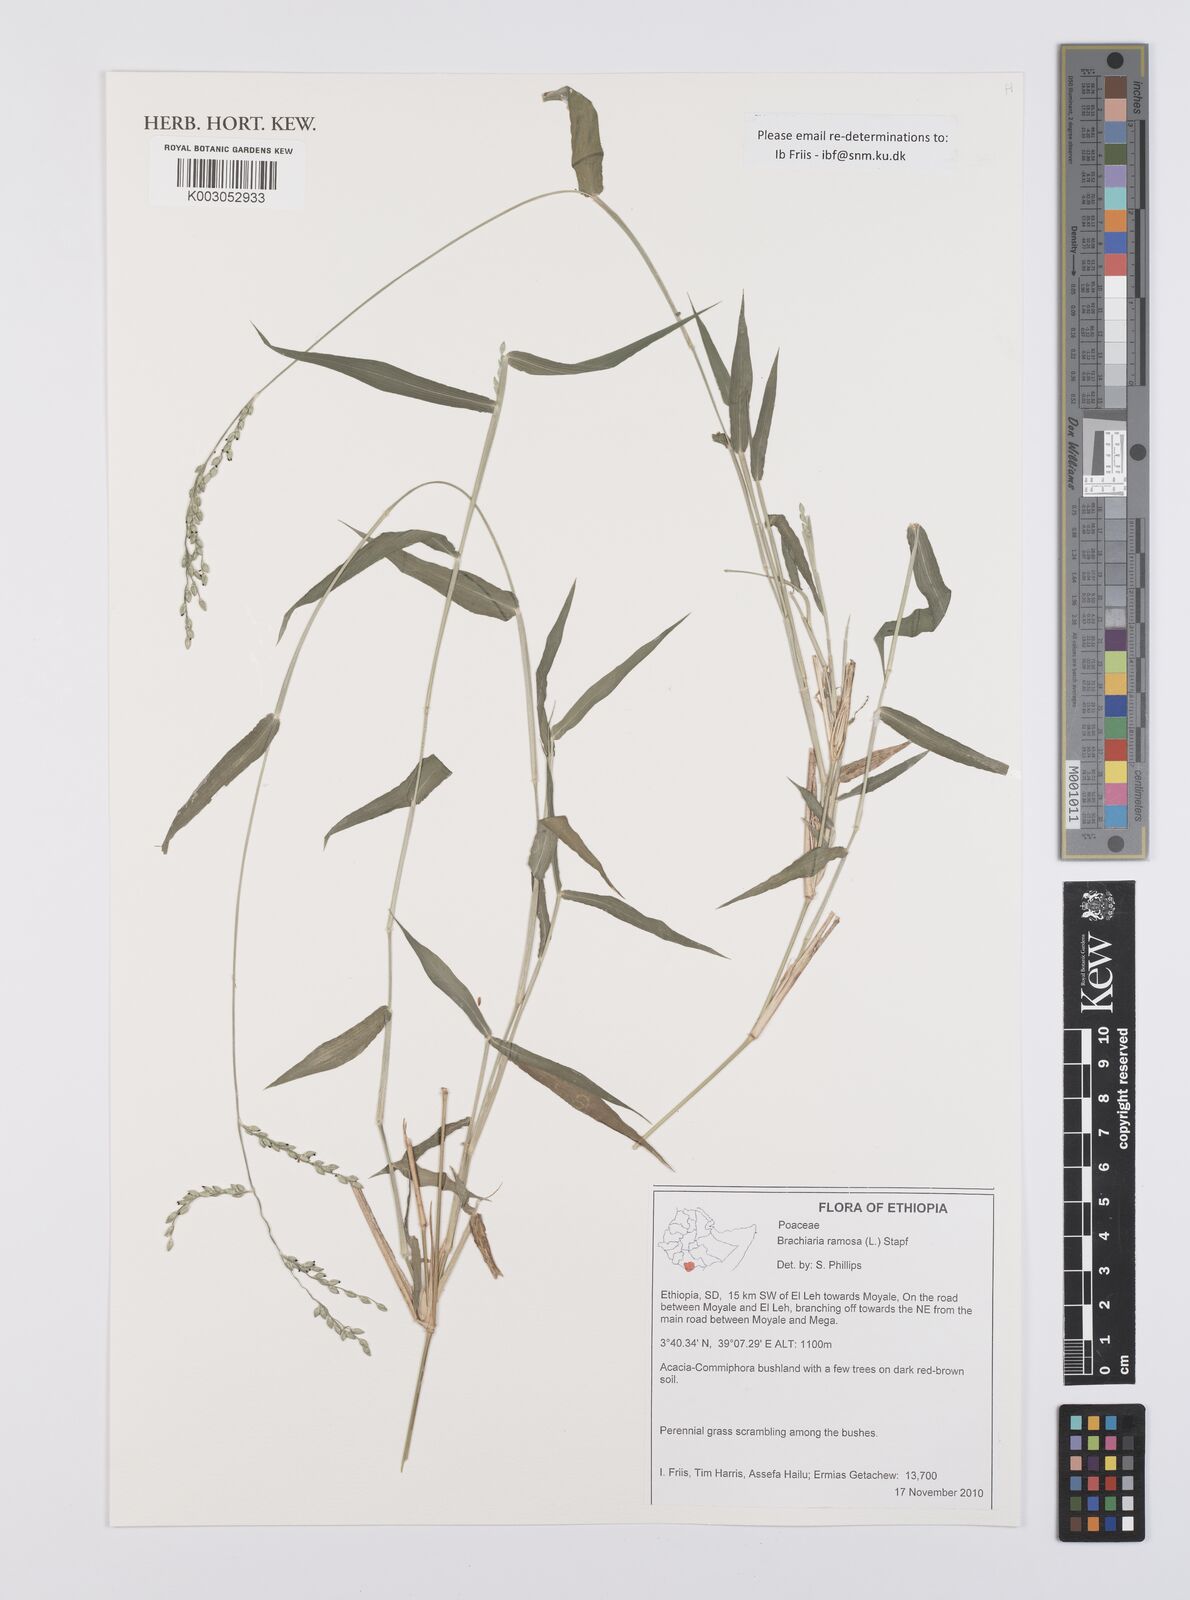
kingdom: Plantae
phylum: Tracheophyta
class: Liliopsida
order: Poales
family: Poaceae
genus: Urochloa
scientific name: Urochloa ramosa
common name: Browntop millet
